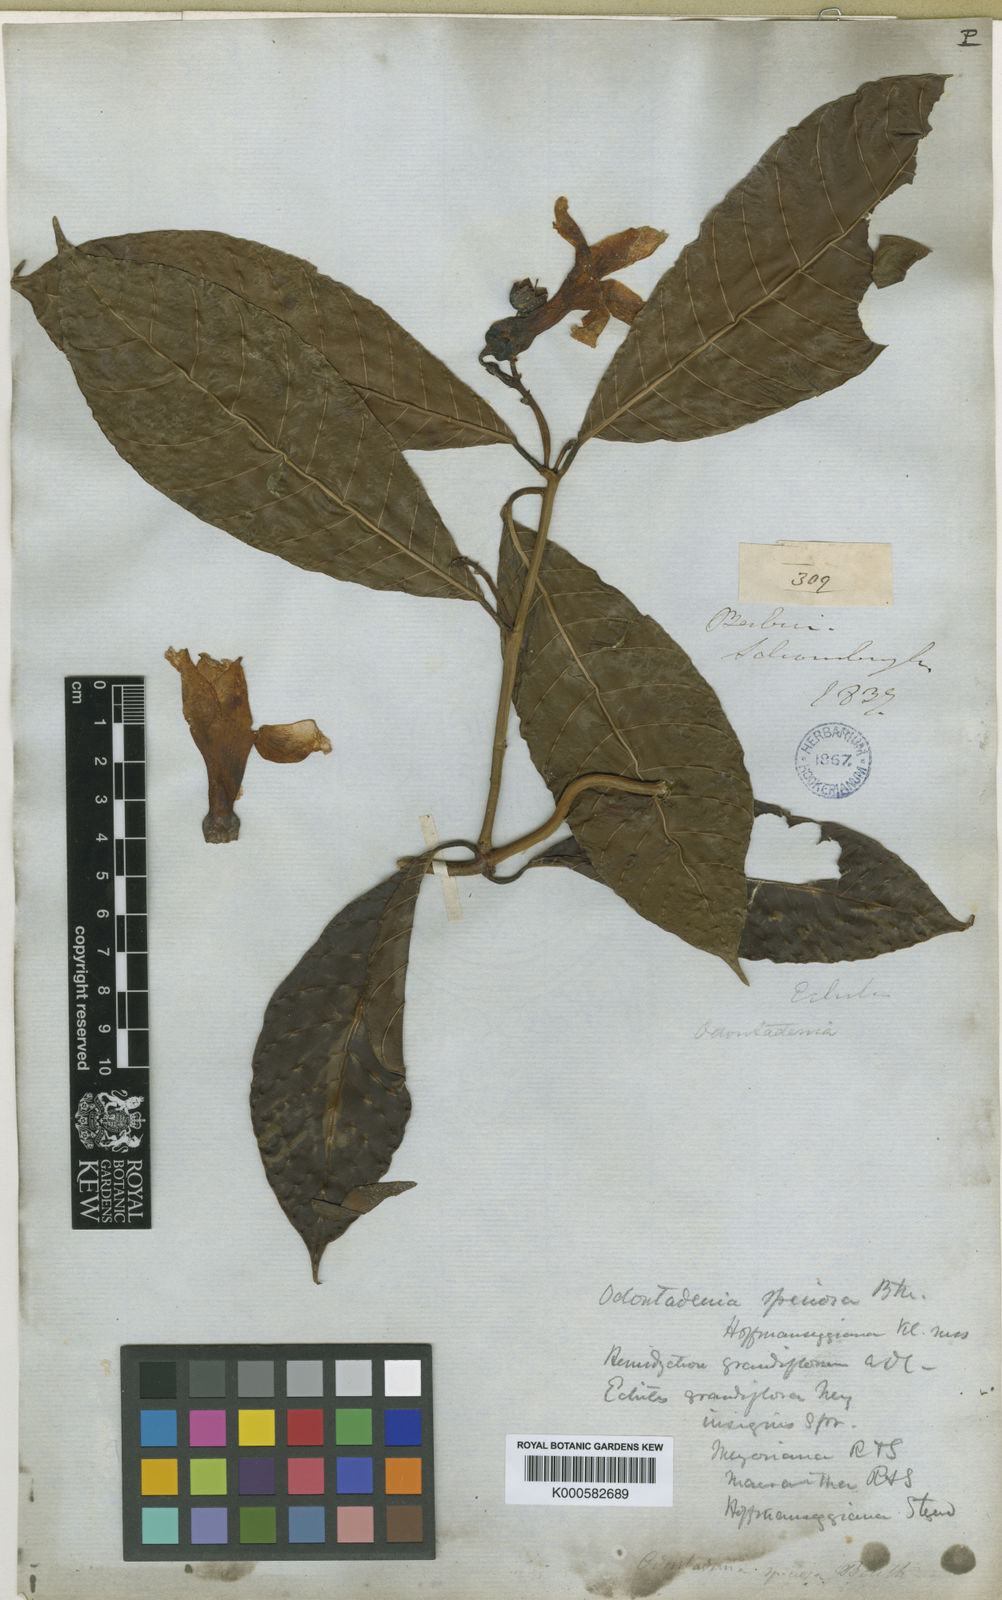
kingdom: Plantae
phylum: Tracheophyta
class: Magnoliopsida
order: Gentianales
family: Apocynaceae
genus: Odontadenia
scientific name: Odontadenia semidigyna
